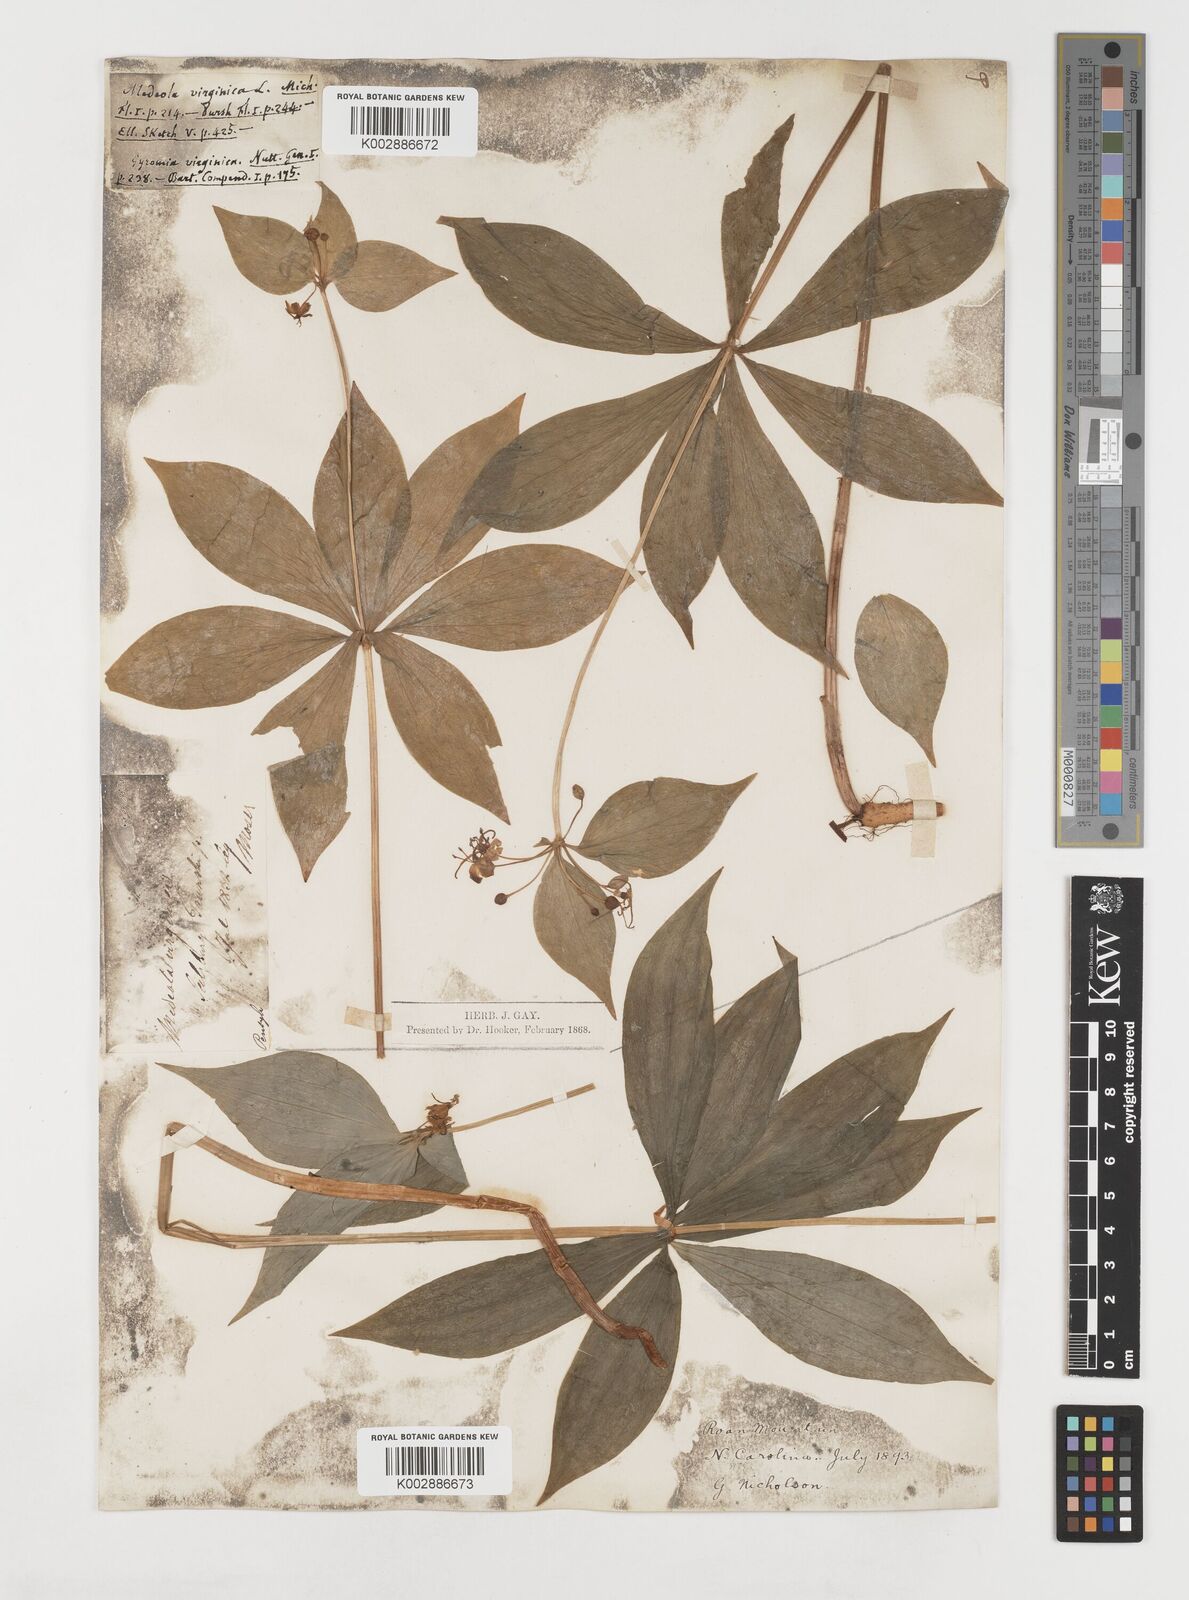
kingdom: Plantae
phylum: Tracheophyta
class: Liliopsida
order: Liliales
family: Liliaceae
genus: Medeola
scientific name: Medeola virginiana
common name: Indian cucumber-root
